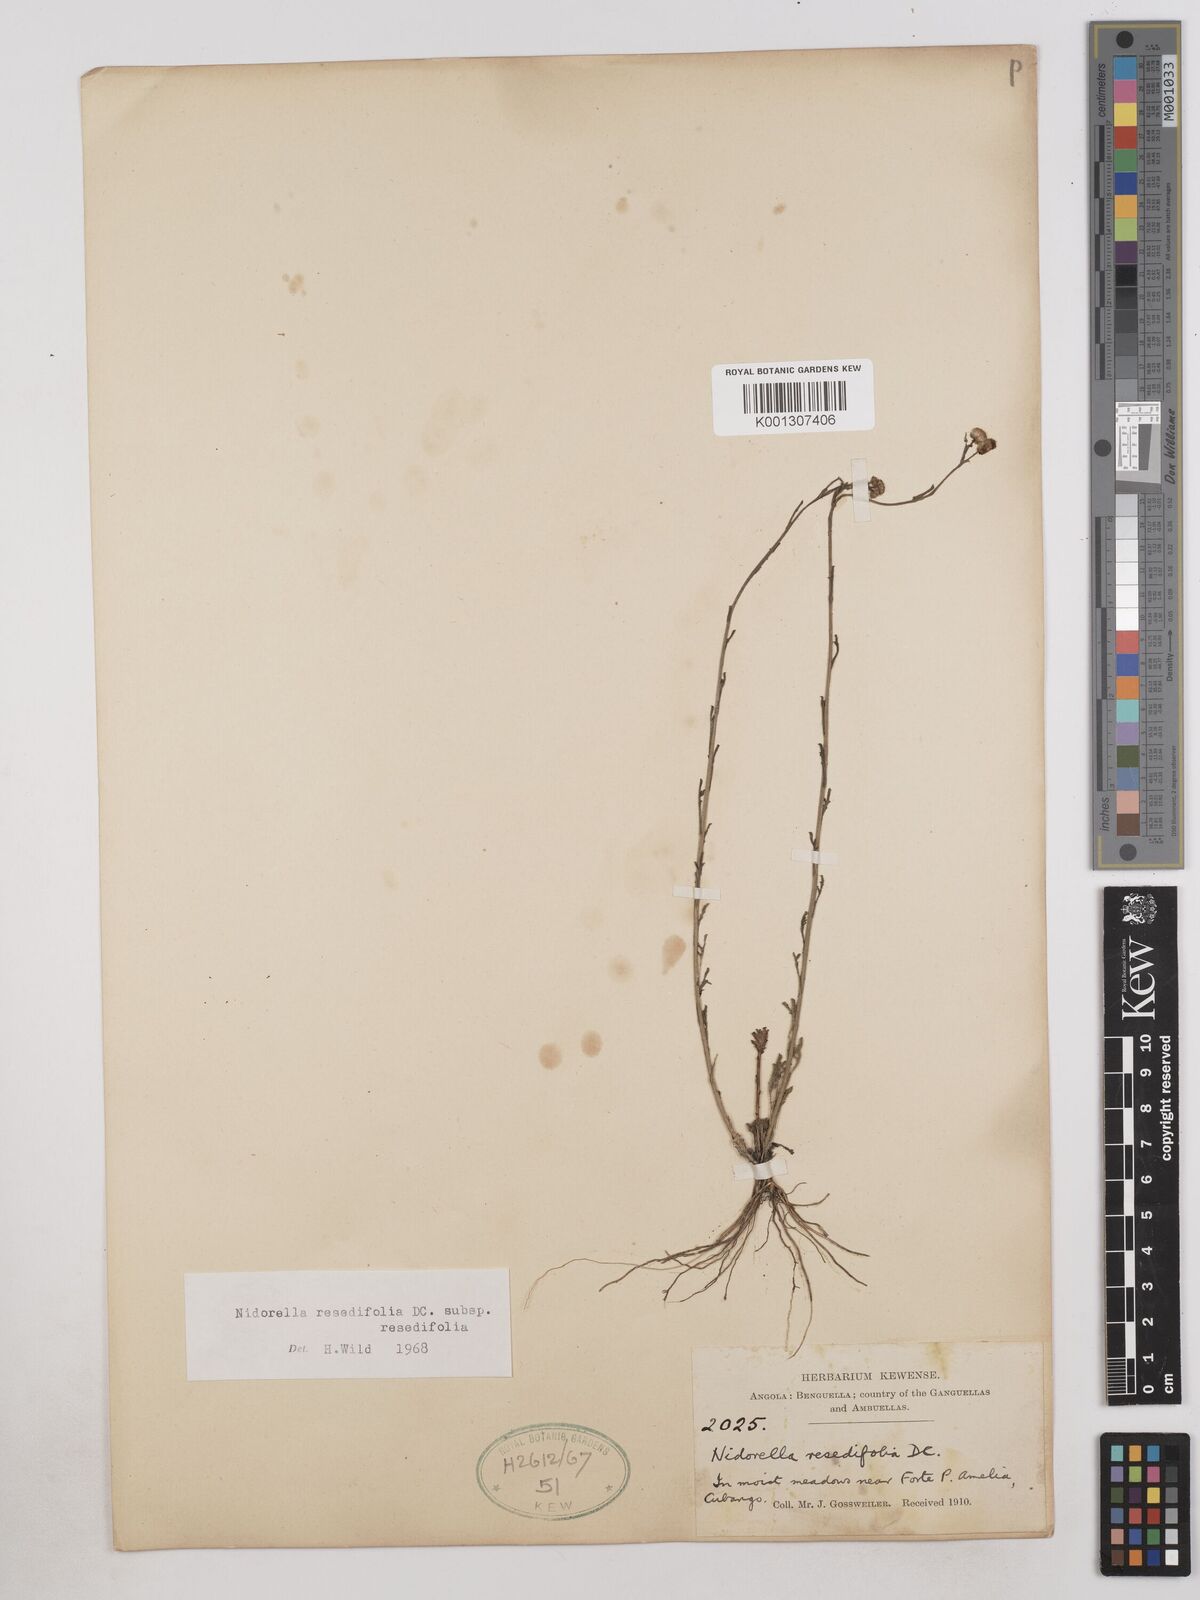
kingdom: Plantae
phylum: Tracheophyta
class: Magnoliopsida
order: Asterales
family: Asteraceae
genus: Nidorella
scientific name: Nidorella resedifolia
